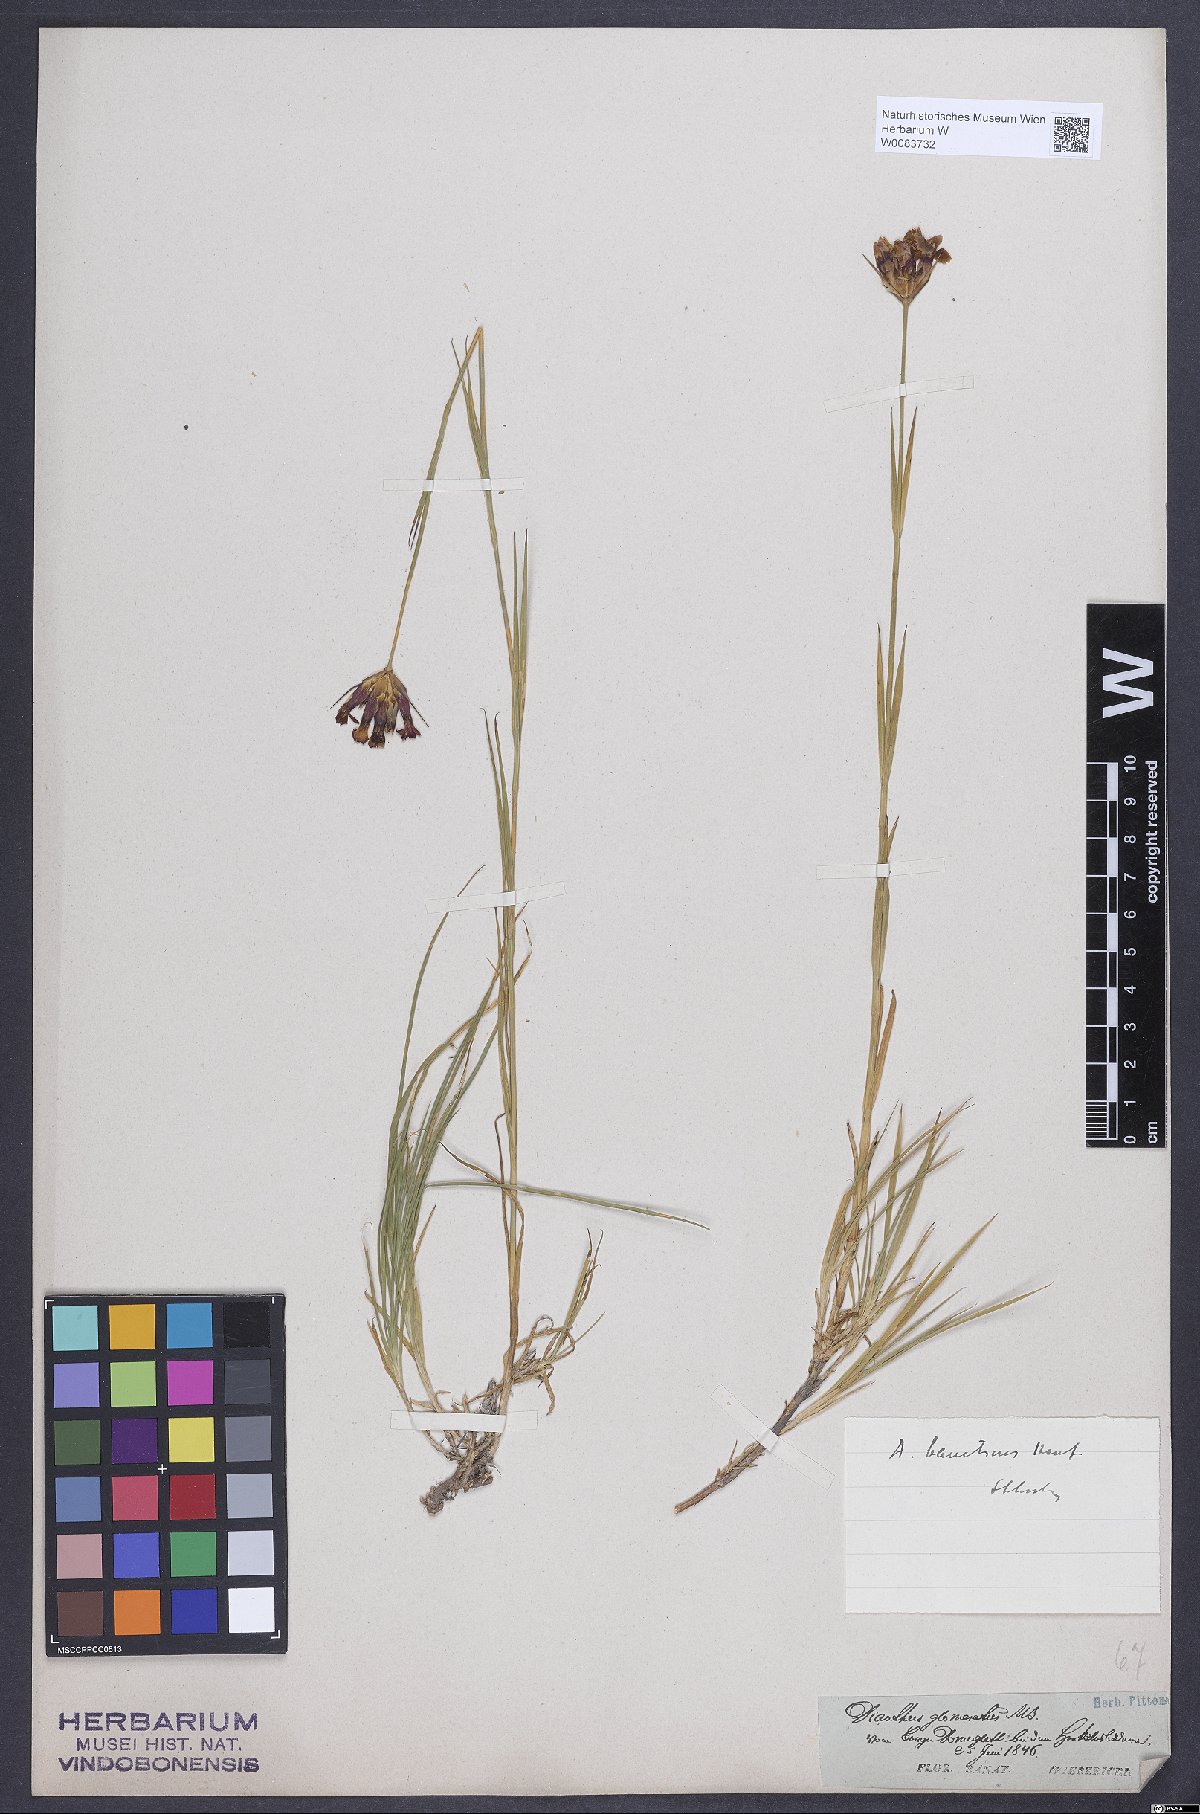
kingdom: Plantae
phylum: Tracheophyta
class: Liliopsida
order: Poales
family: Poaceae
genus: Danthonia
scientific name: Danthonia alpina
